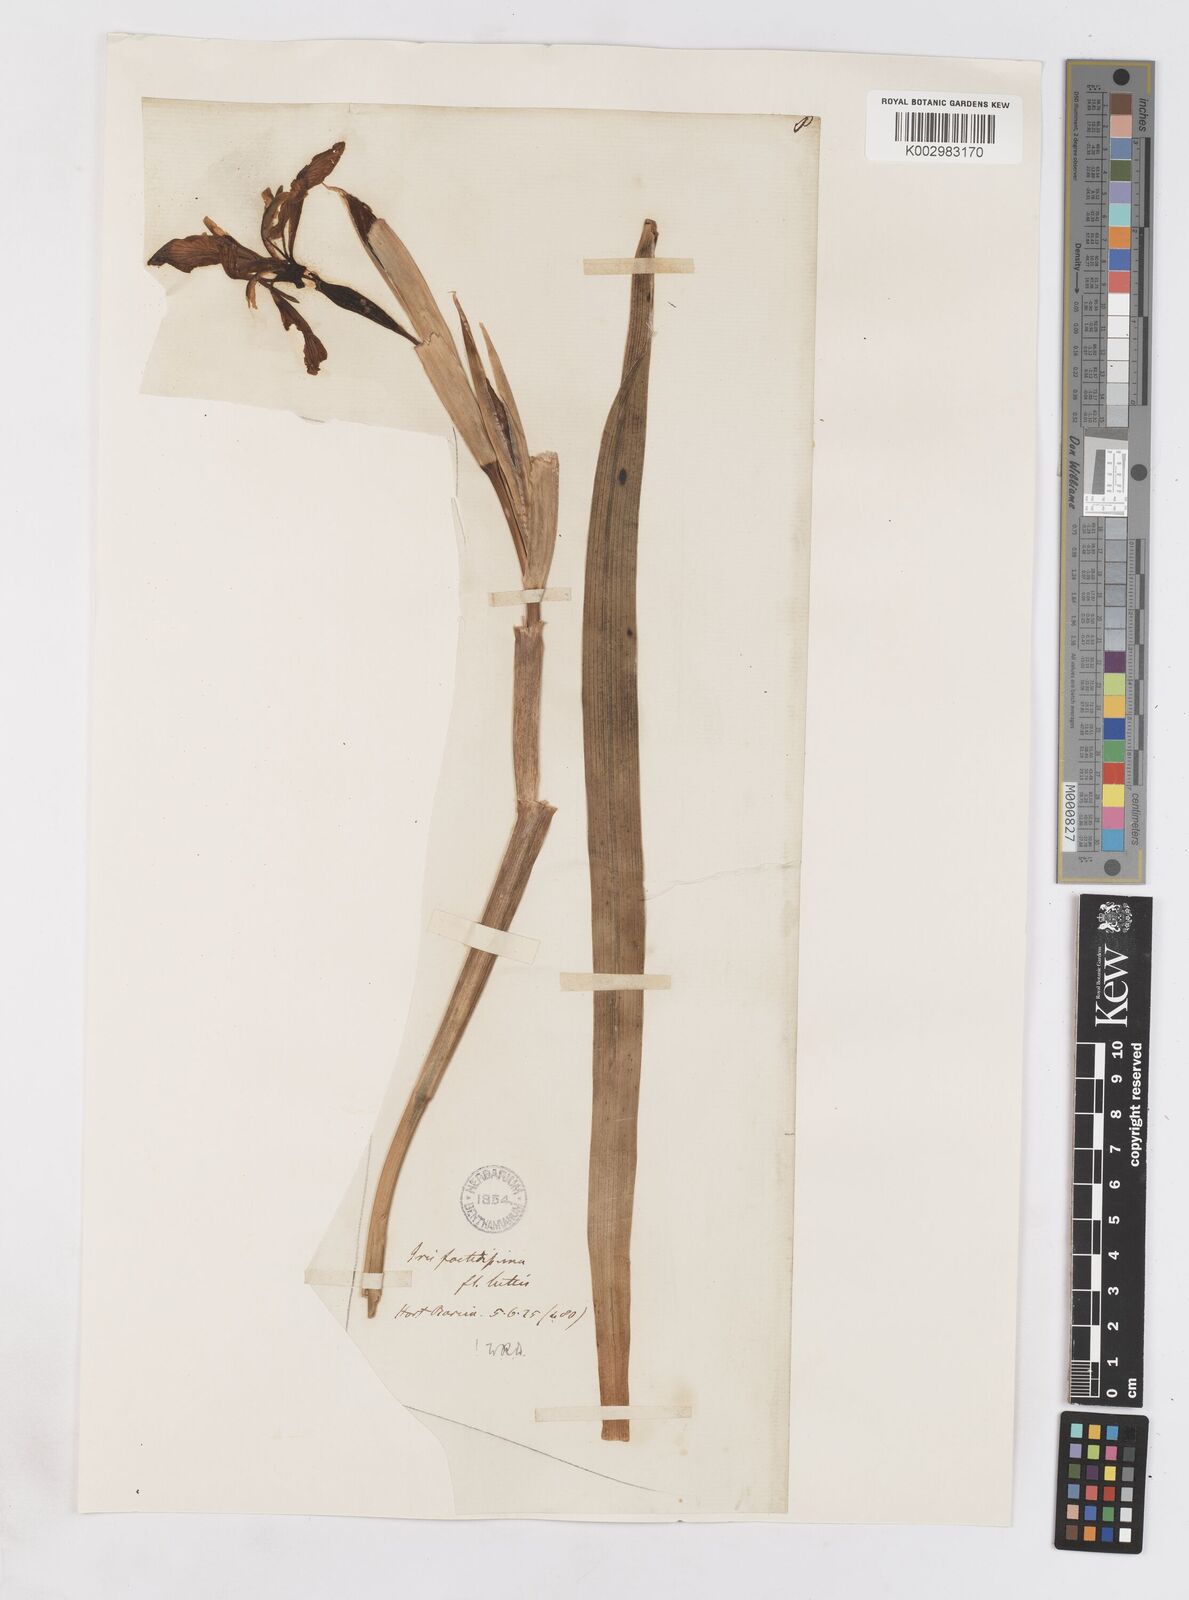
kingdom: Plantae
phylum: Tracheophyta
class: Liliopsida
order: Asparagales
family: Iridaceae
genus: Iris
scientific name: Iris foetidissima
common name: Stinking iris
